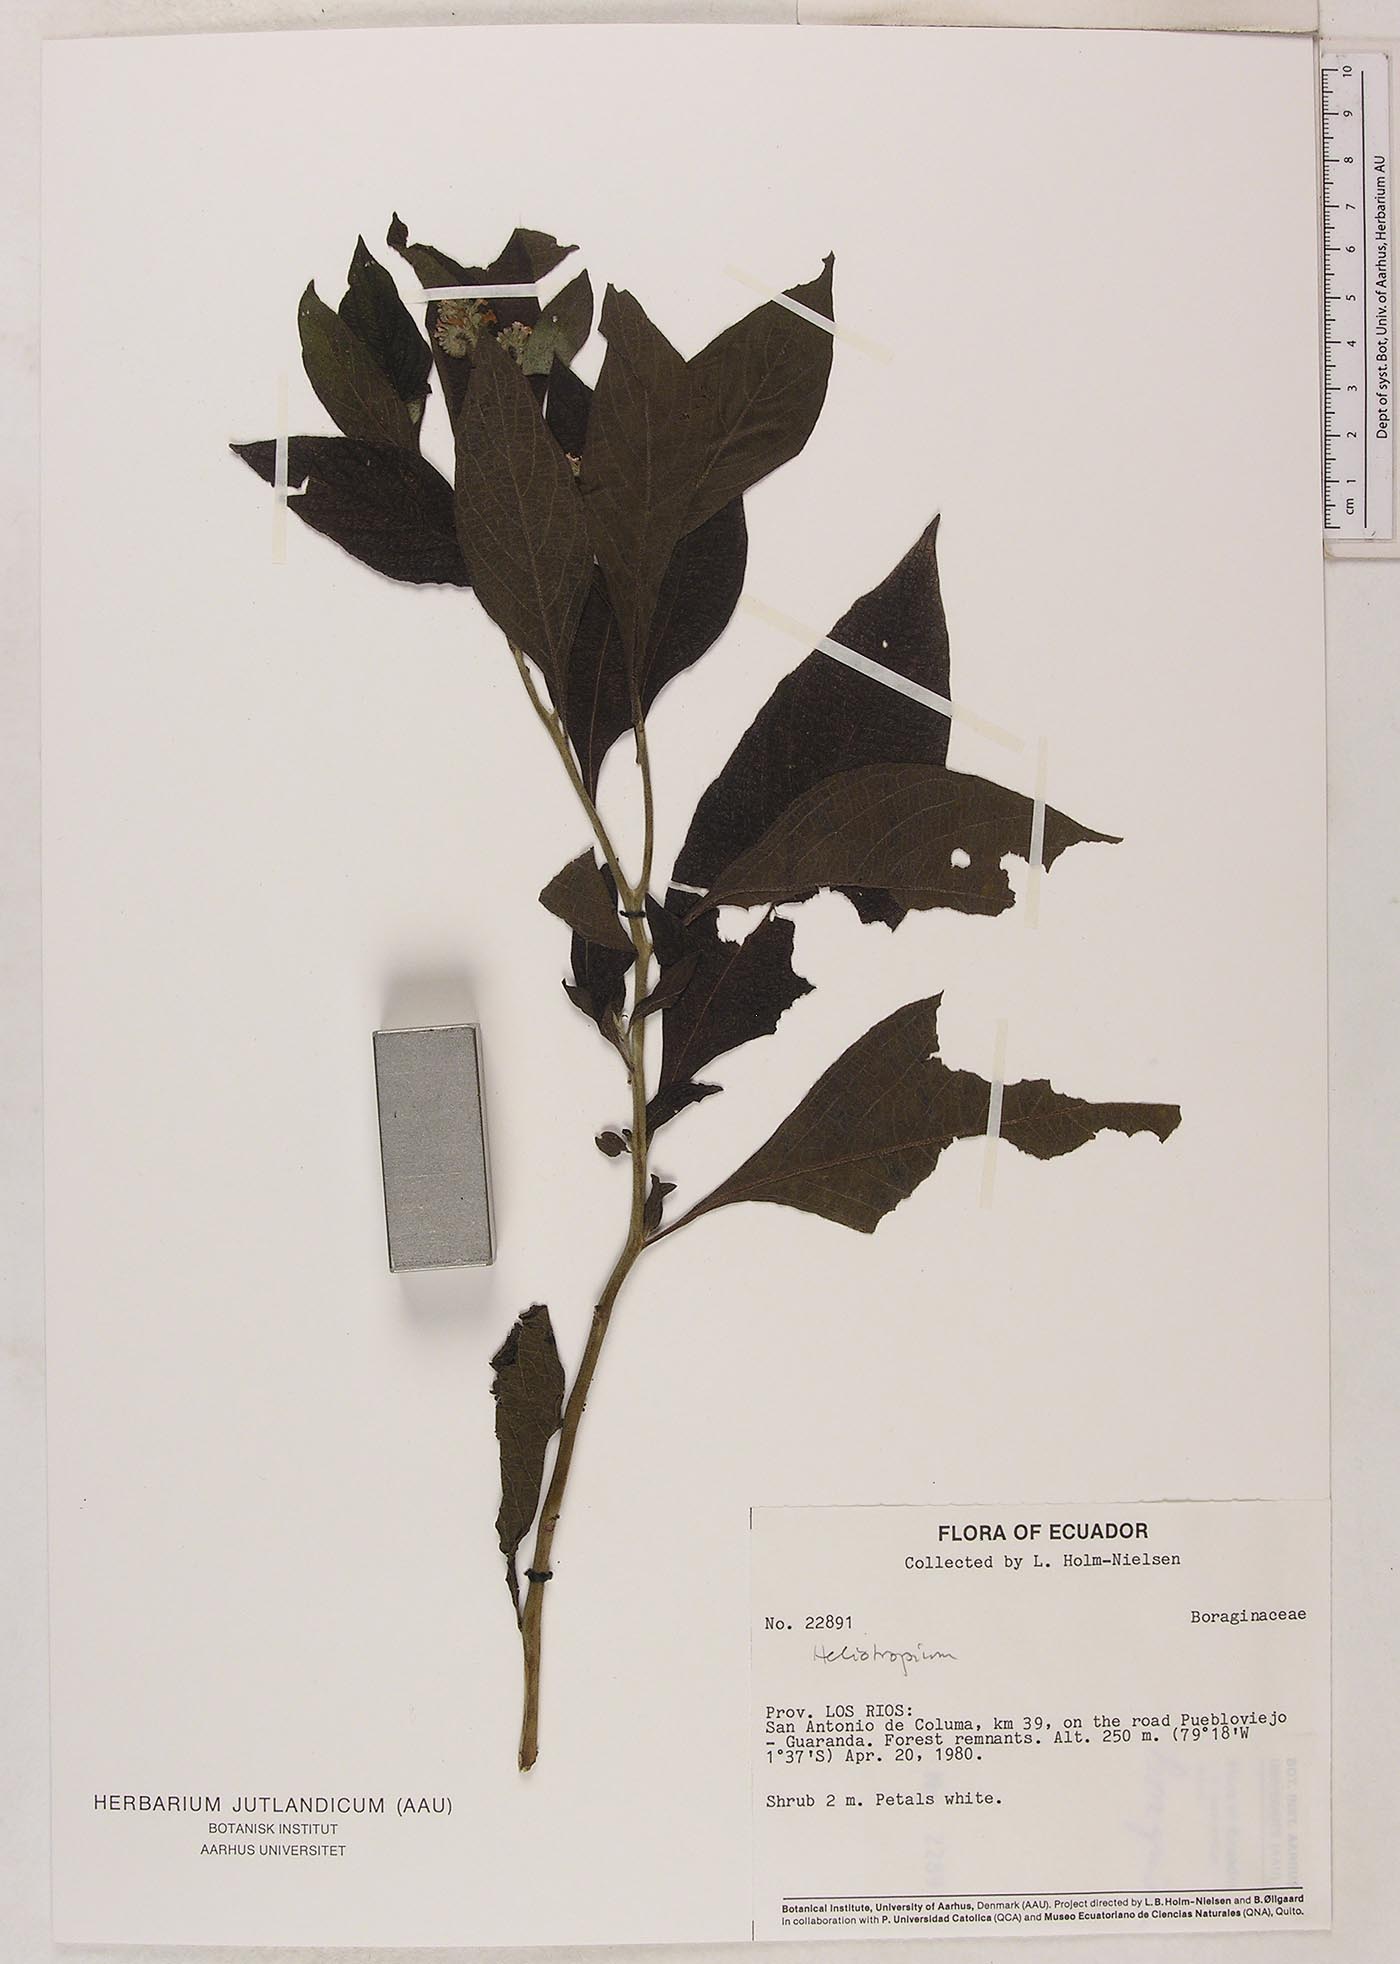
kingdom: Plantae
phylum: Tracheophyta
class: Magnoliopsida
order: Boraginales
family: Heliotropiaceae
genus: Heliotropium
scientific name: Heliotropium
